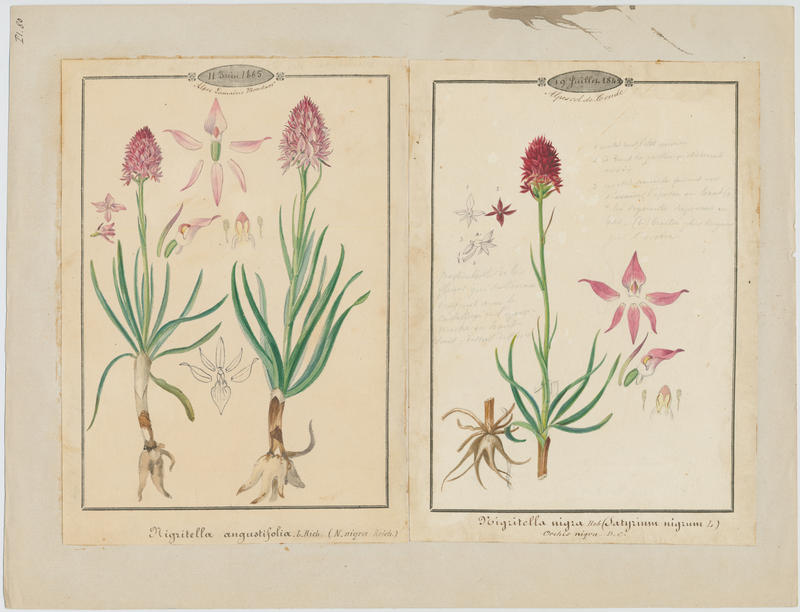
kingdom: Plantae
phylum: Tracheophyta
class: Liliopsida
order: Asparagales
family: Orchidaceae
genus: Gymnadenia
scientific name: Gymnadenia nigra
